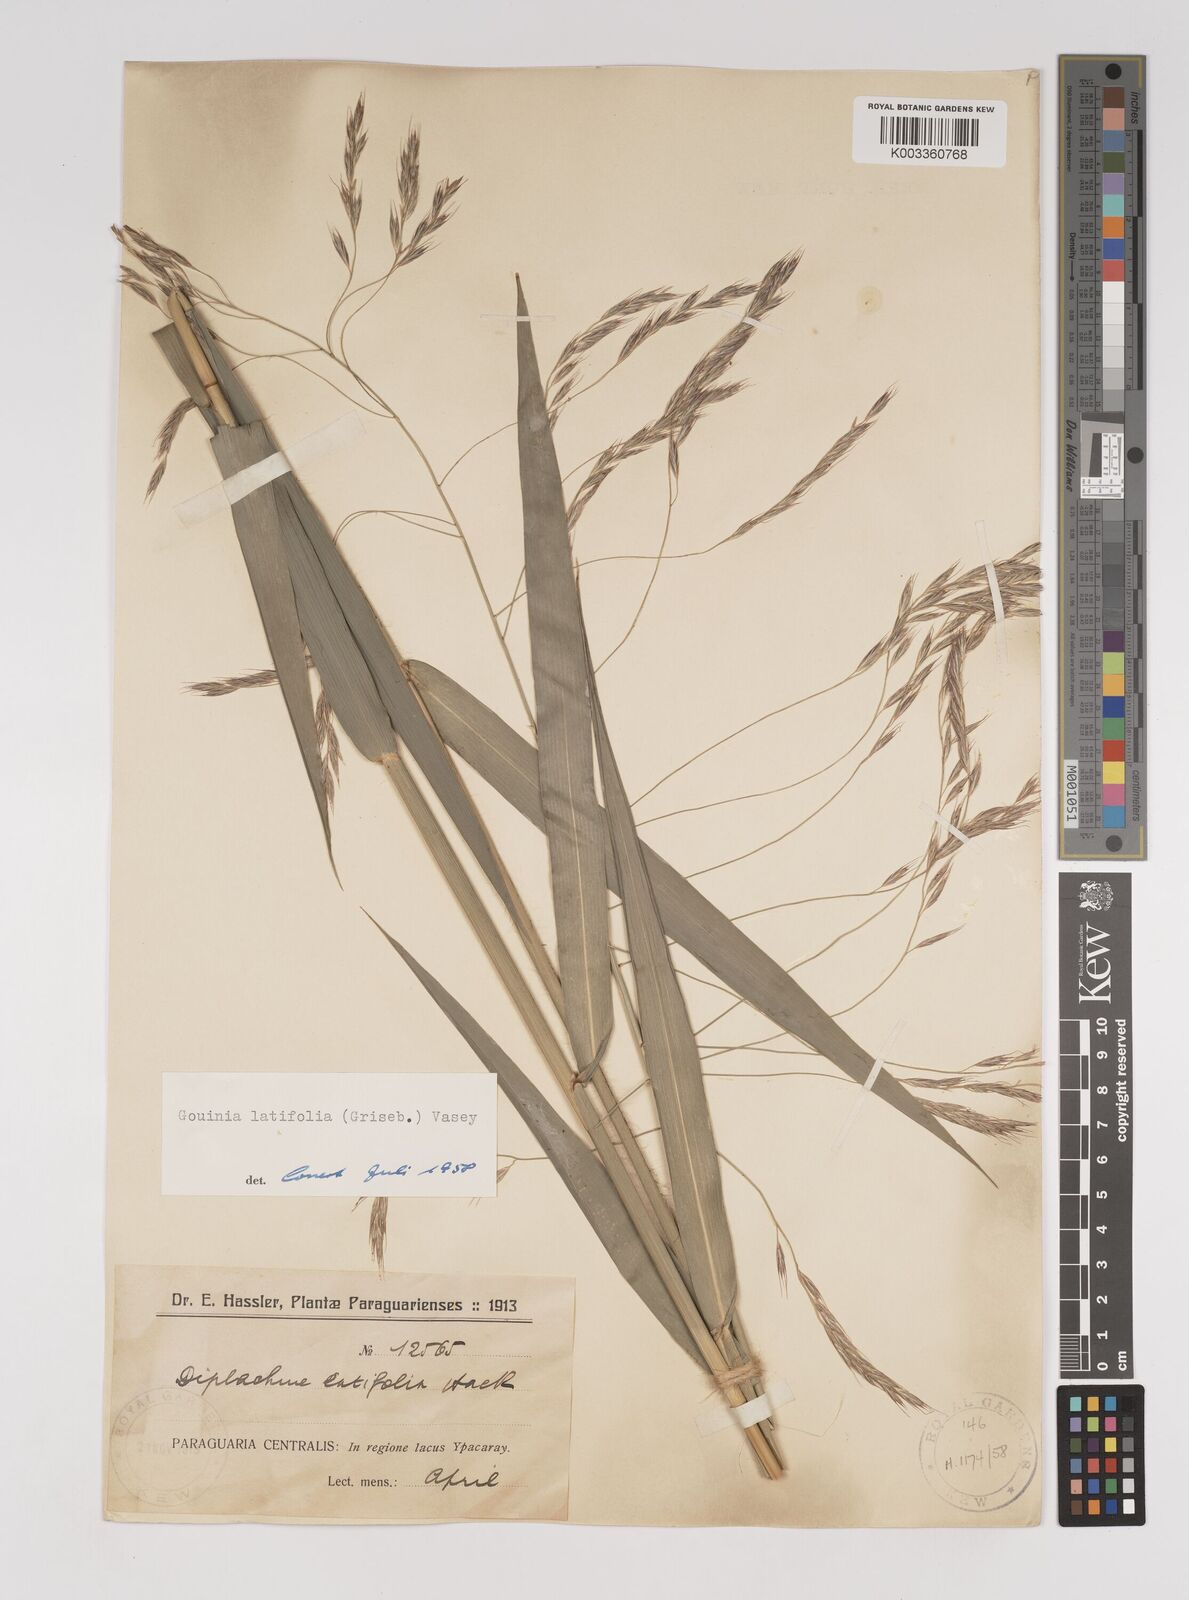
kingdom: Plantae
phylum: Tracheophyta
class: Liliopsida
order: Poales
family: Poaceae
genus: Gouinia
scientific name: Gouinia latifolia
